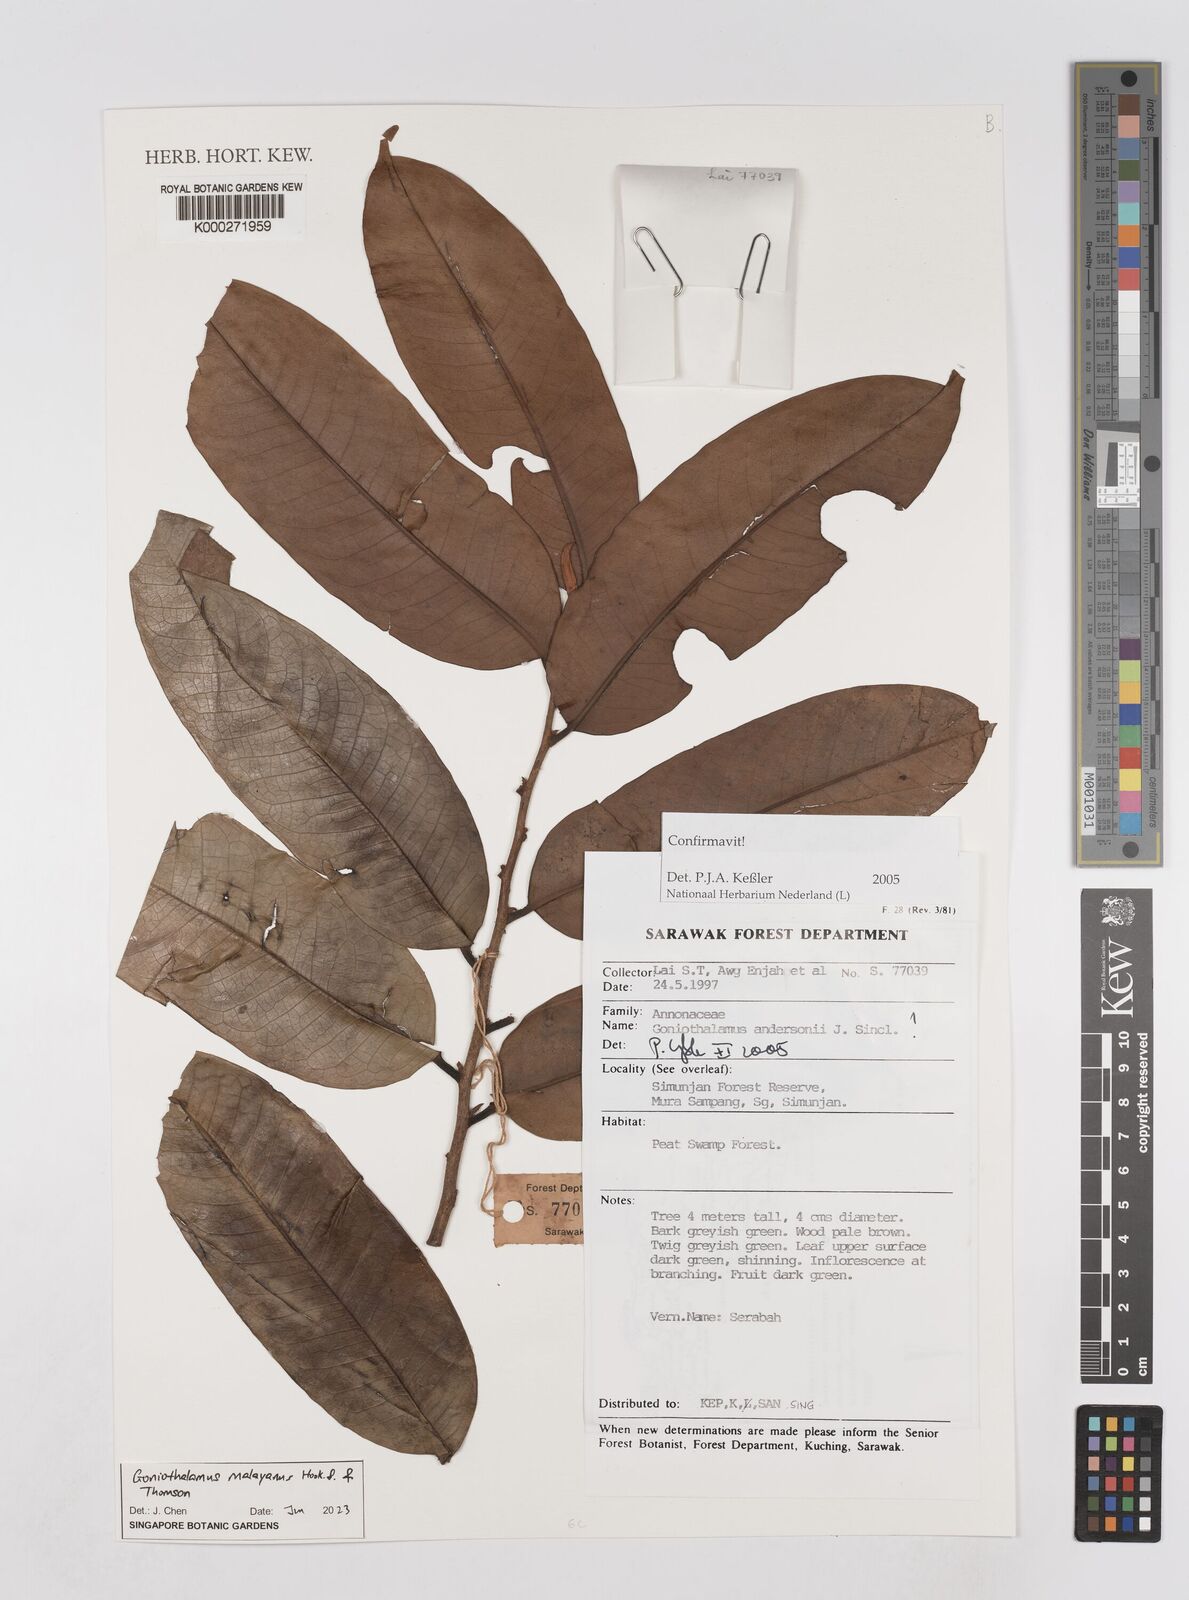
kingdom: Plantae
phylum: Tracheophyta
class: Magnoliopsida
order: Magnoliales
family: Annonaceae
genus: Goniothalamus
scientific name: Goniothalamus andersonii
